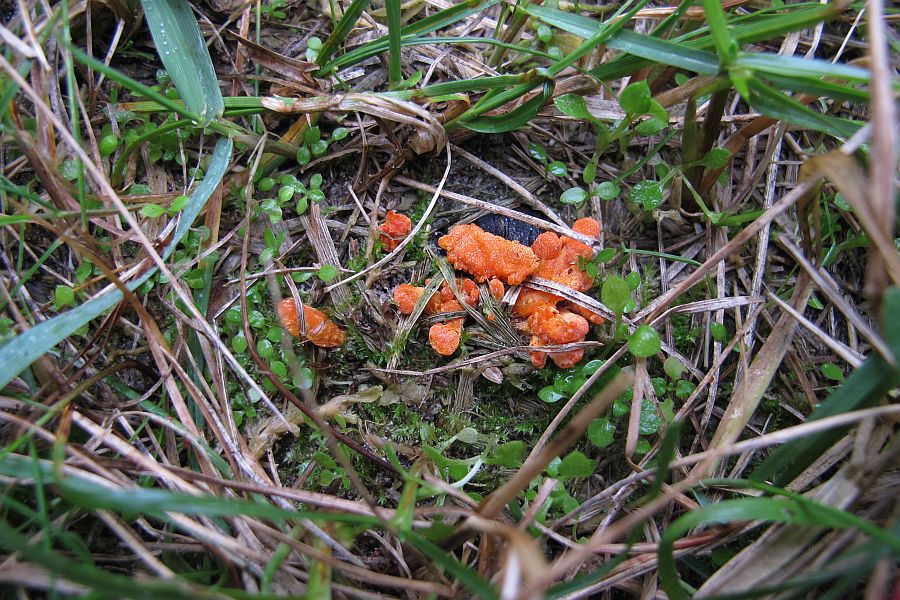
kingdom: Fungi
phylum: Ascomycota
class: Sordariomycetes
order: Hypocreales
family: Cordycipitaceae
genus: Cordyceps
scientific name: Cordyceps militaris
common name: puppe-snyltekølle
